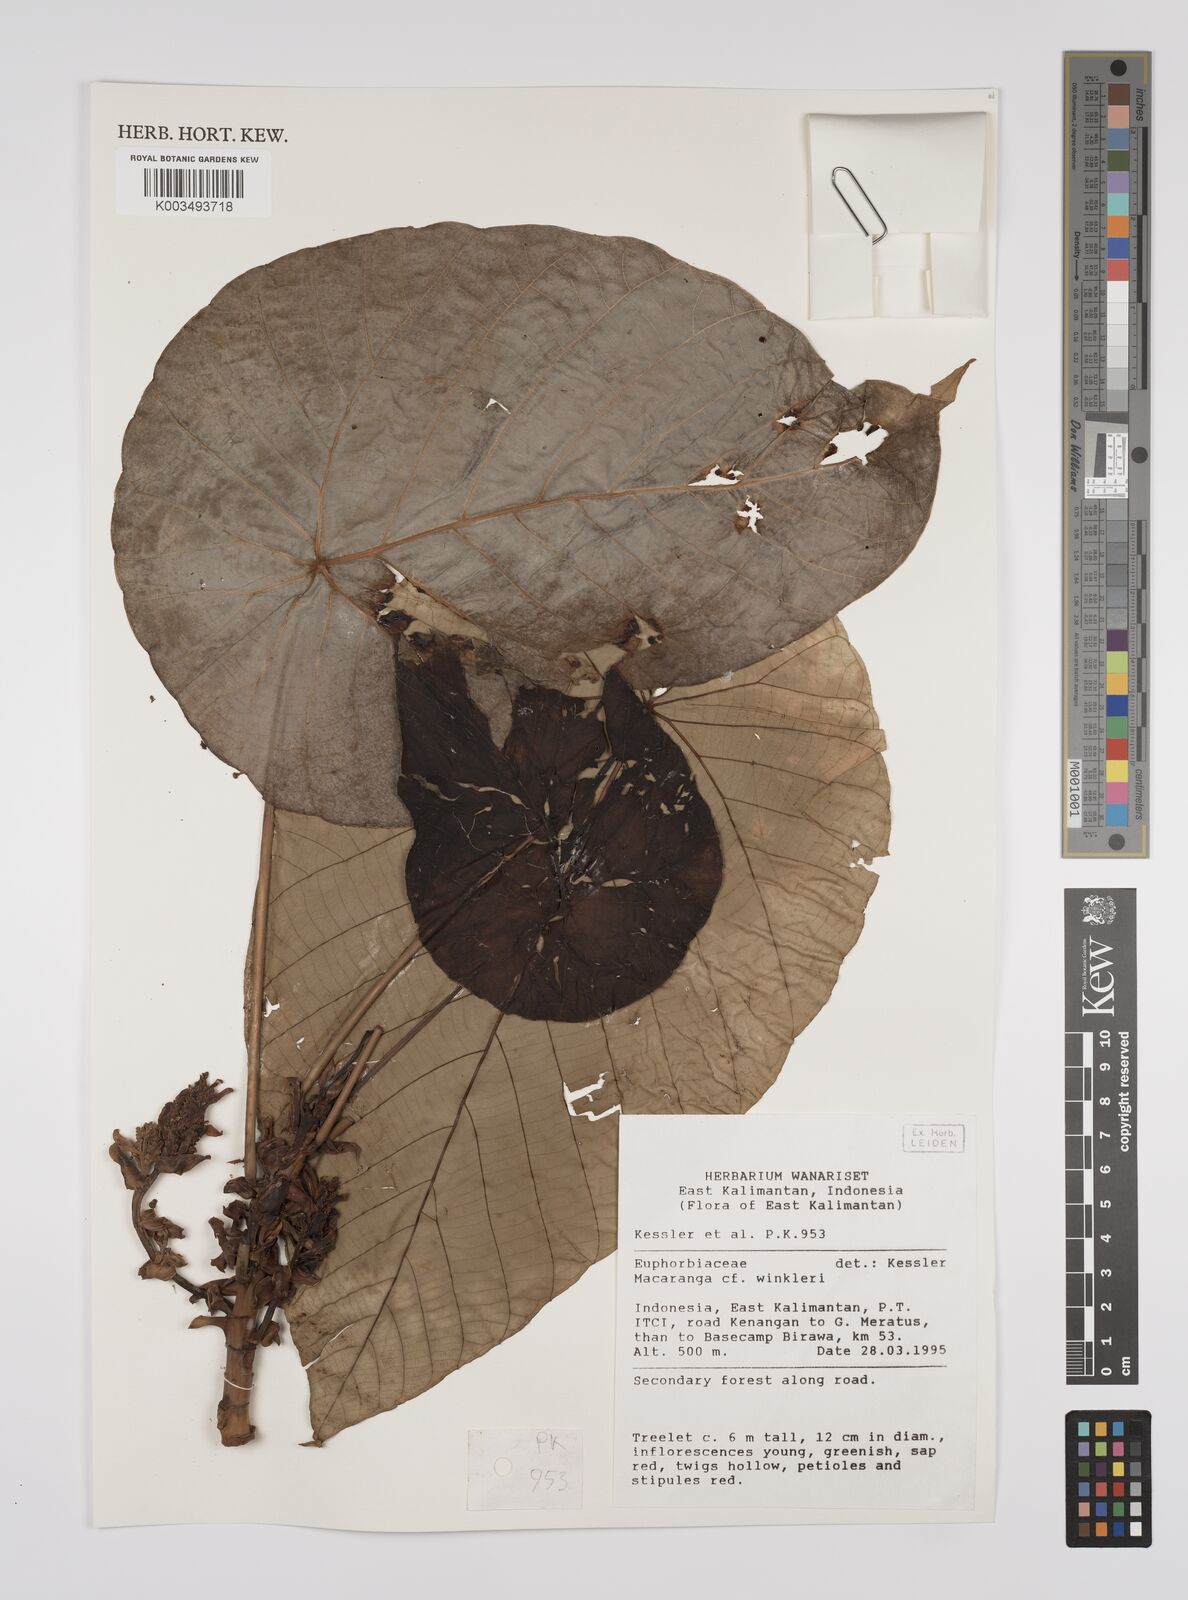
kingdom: Plantae
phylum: Tracheophyta
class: Magnoliopsida
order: Malpighiales
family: Euphorbiaceae
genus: Macaranga
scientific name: Macaranga winkleri
